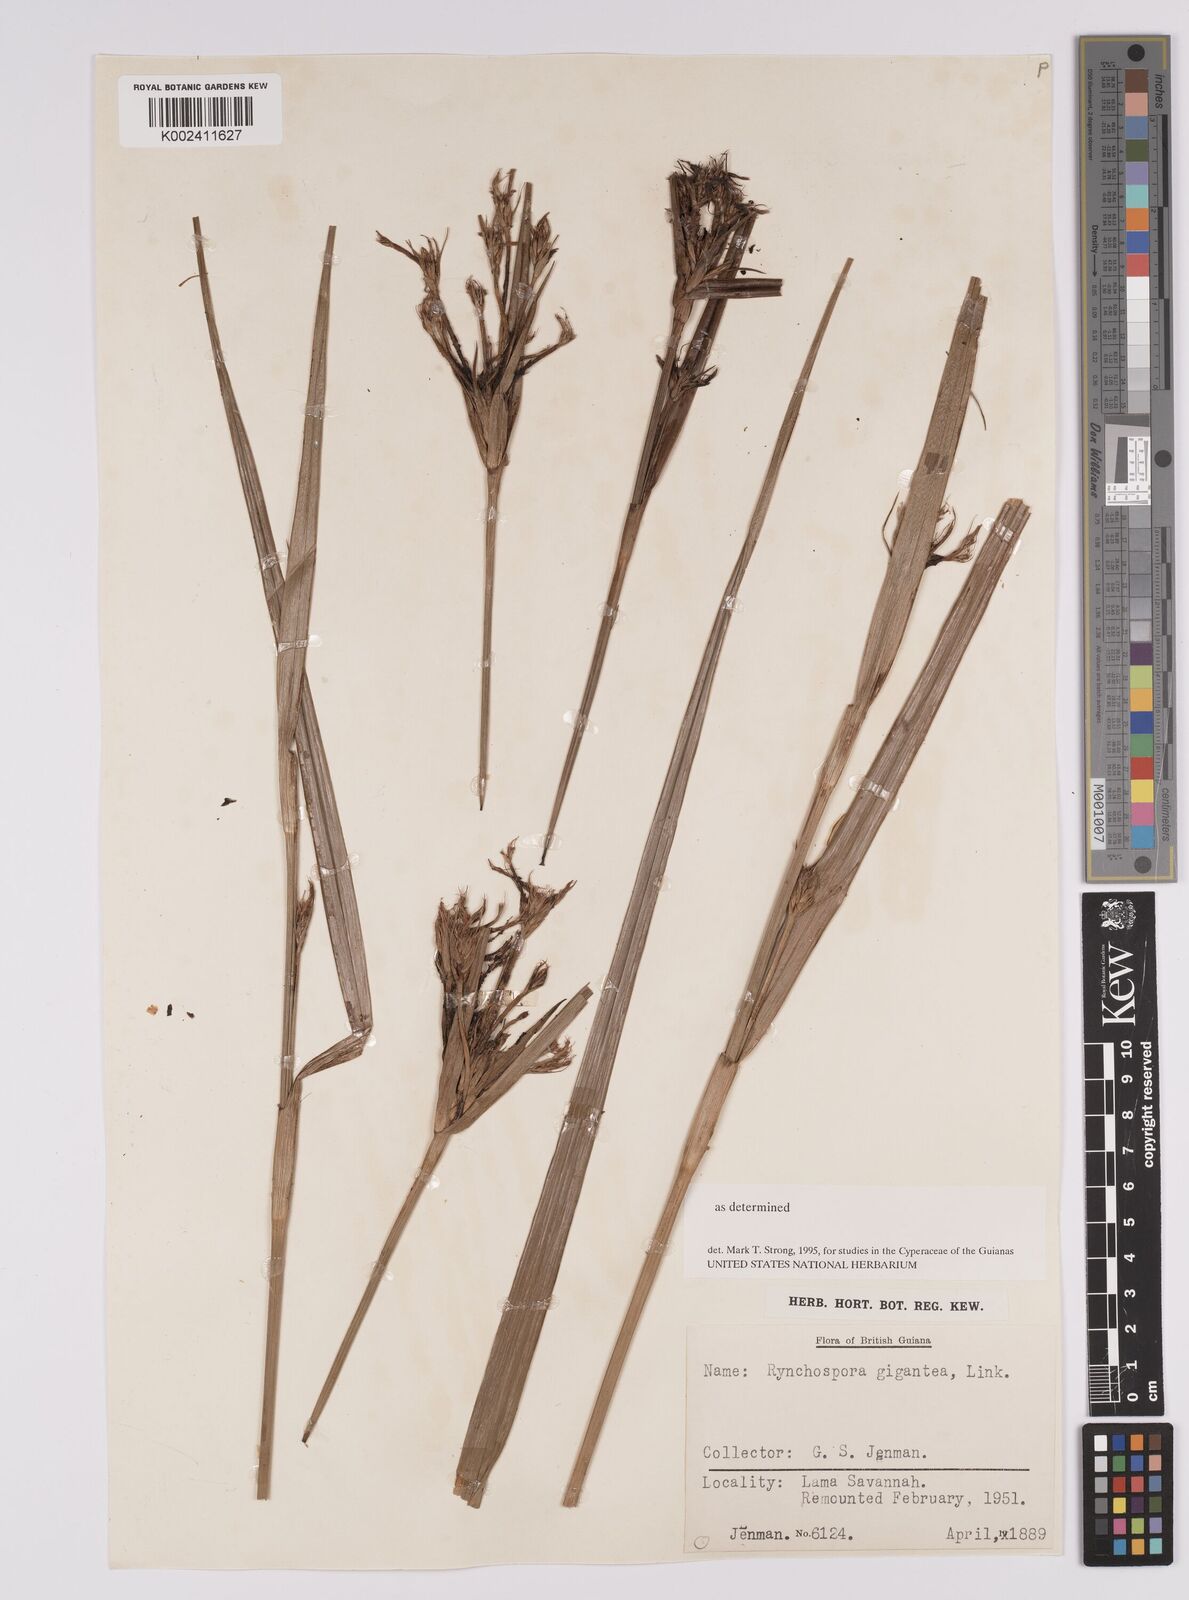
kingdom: Plantae
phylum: Tracheophyta
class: Liliopsida
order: Poales
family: Cyperaceae
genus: Rhynchospora
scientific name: Rhynchospora gigantea
